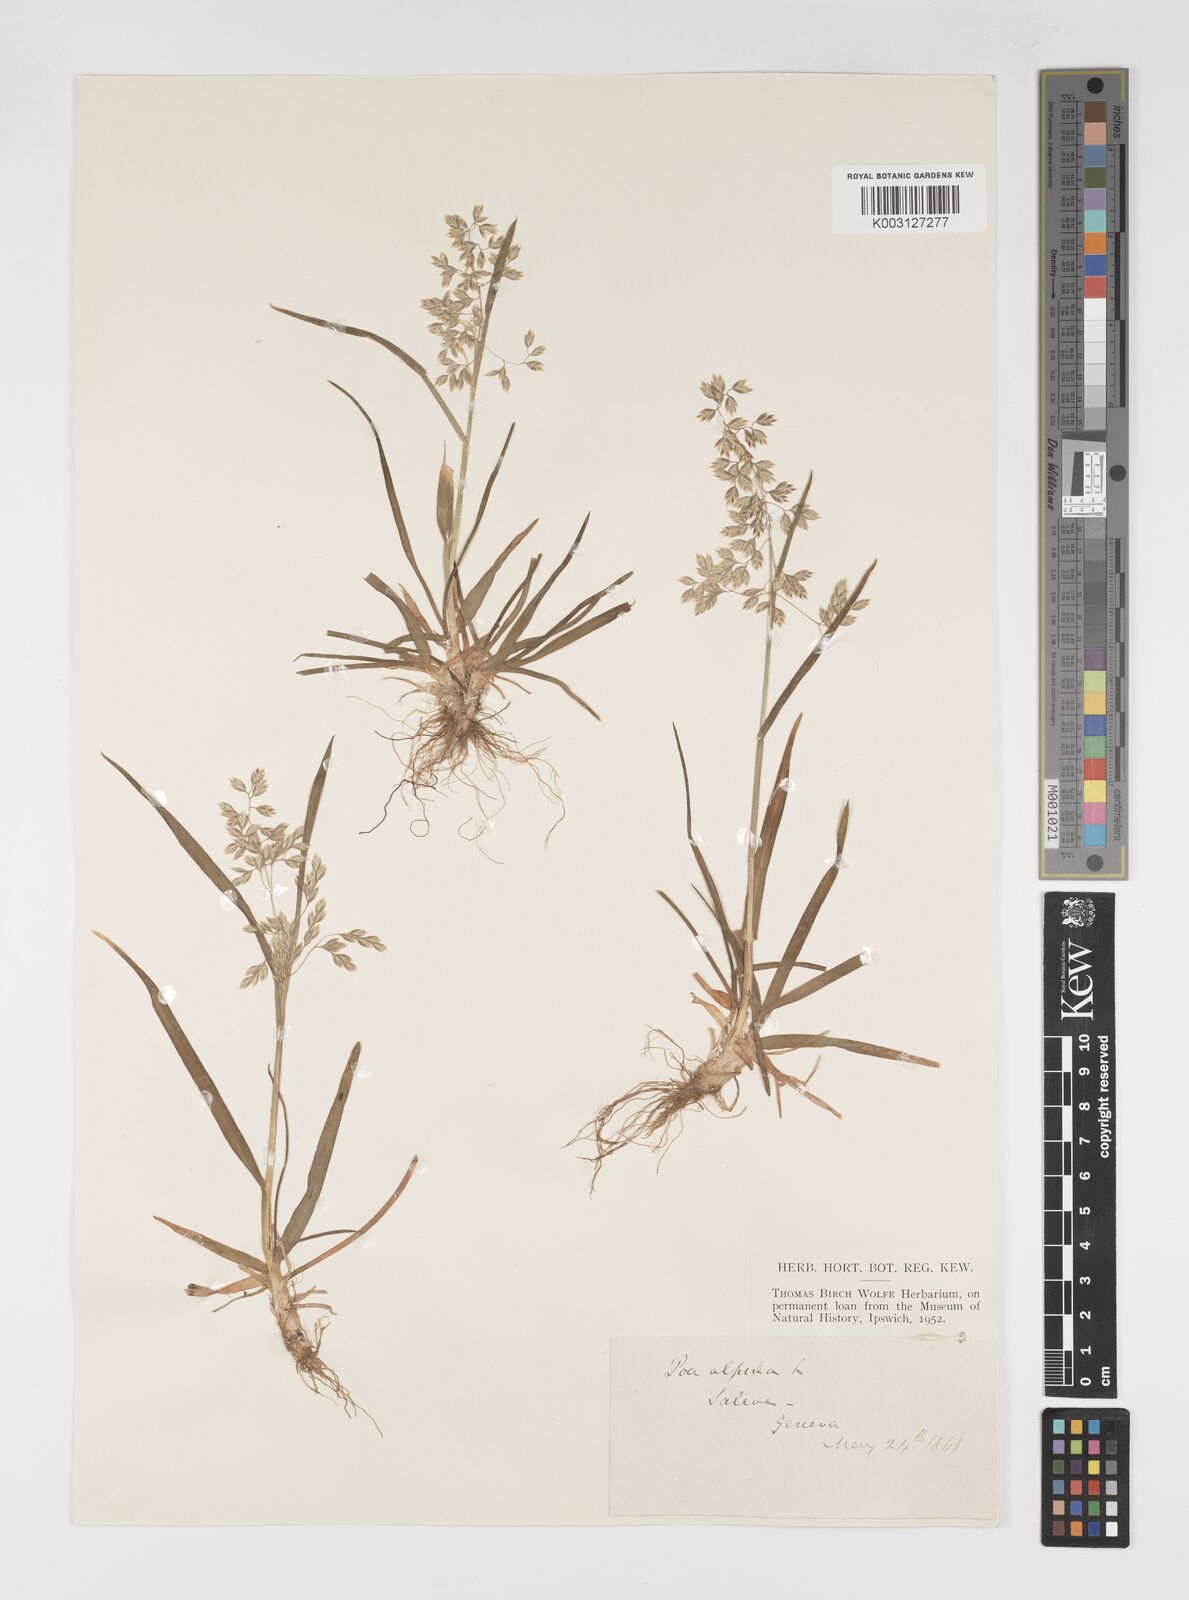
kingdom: Plantae
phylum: Tracheophyta
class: Liliopsida
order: Poales
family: Poaceae
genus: Poa
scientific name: Poa alpina
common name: Alpine bluegrass
